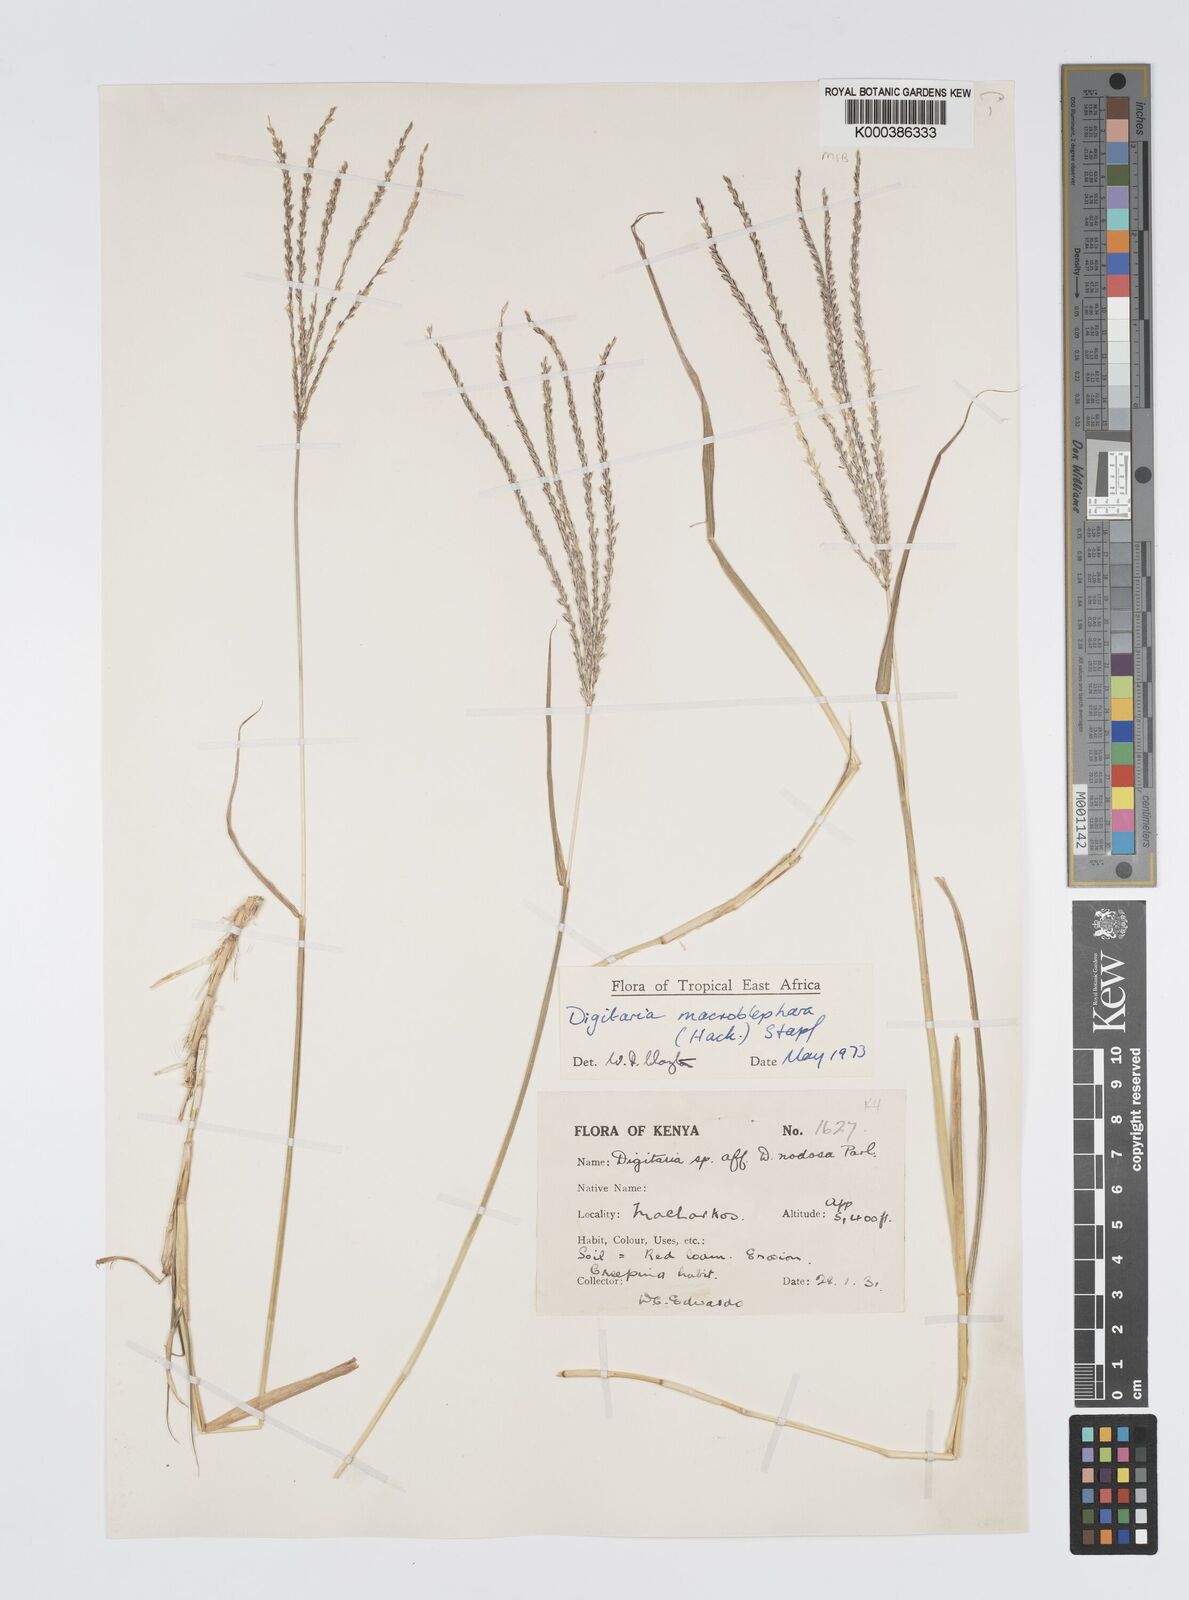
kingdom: Plantae
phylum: Tracheophyta
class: Liliopsida
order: Poales
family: Poaceae
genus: Digitaria
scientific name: Digitaria macroblephara
